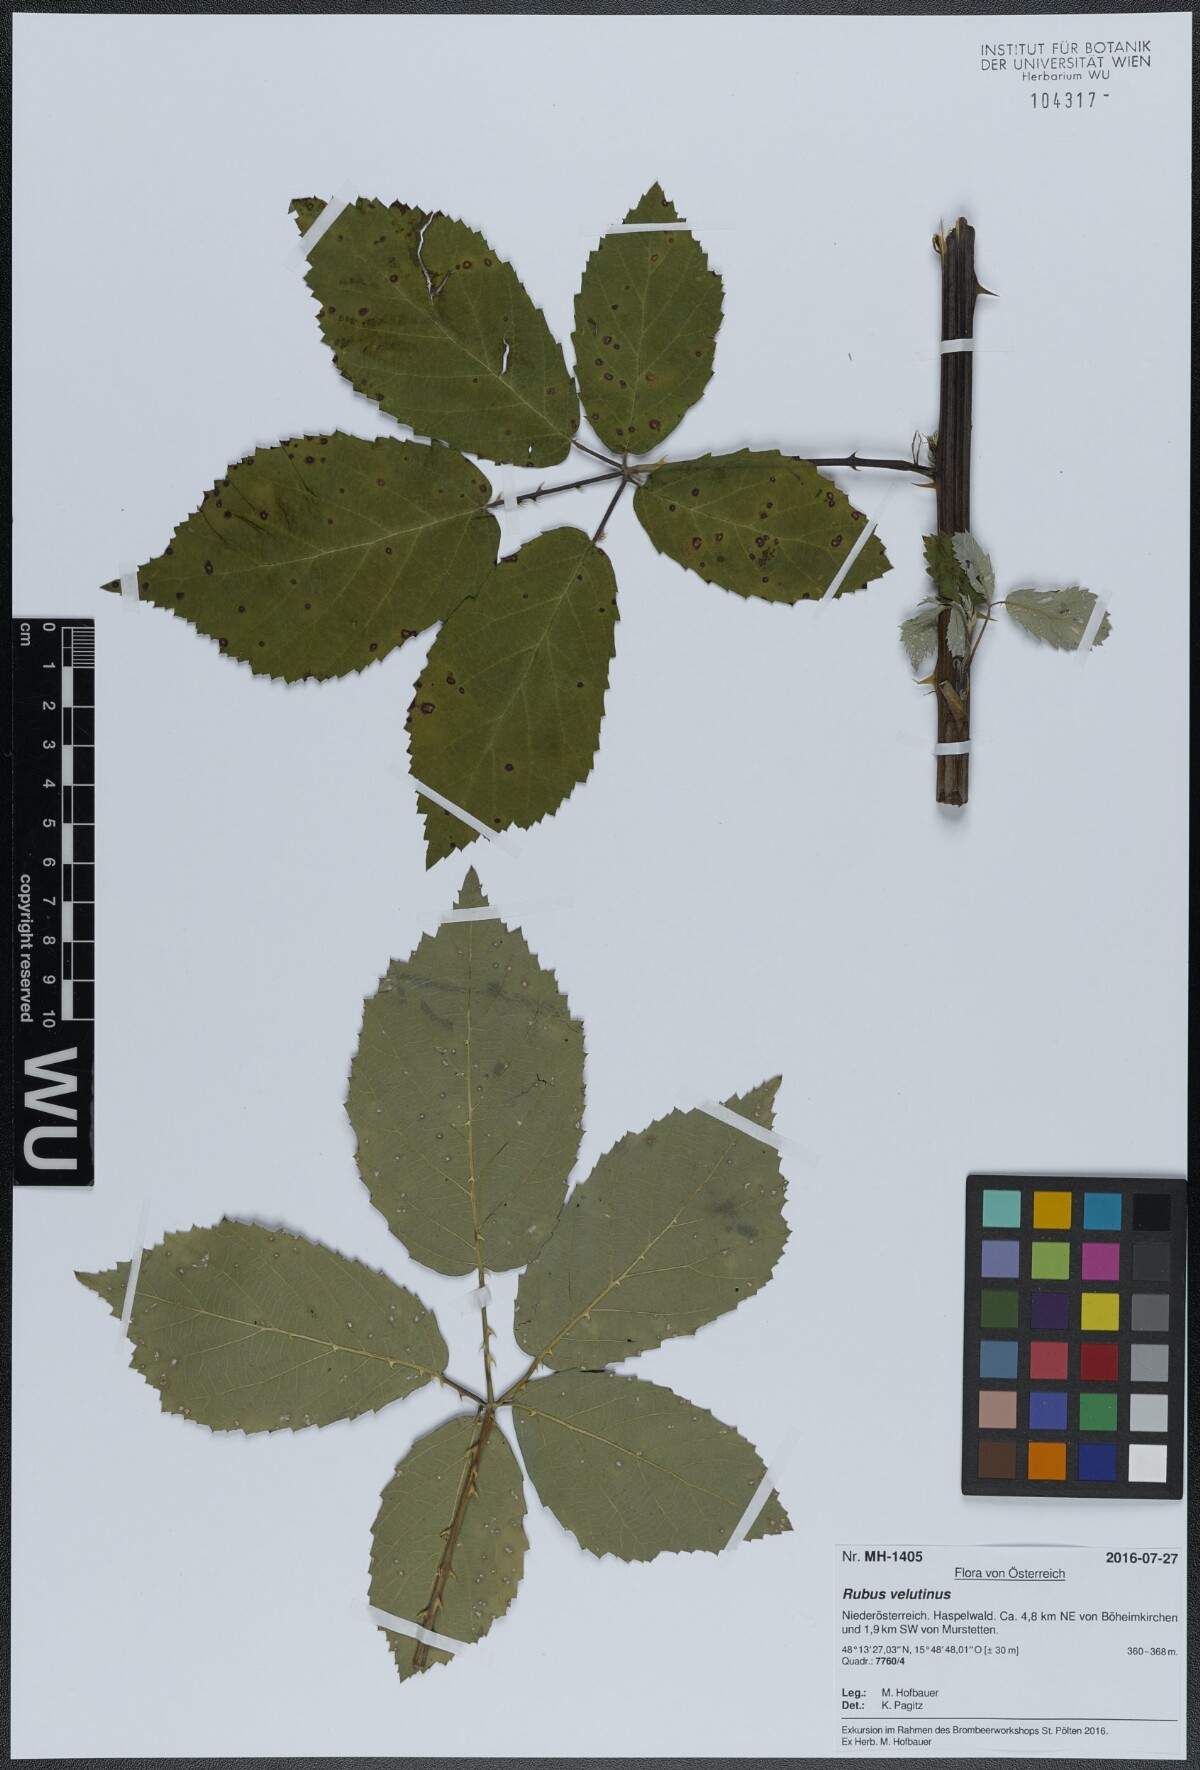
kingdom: Plantae
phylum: Tracheophyta
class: Magnoliopsida
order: Rosales
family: Rosaceae
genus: Rubus
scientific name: Rubus velutinus
